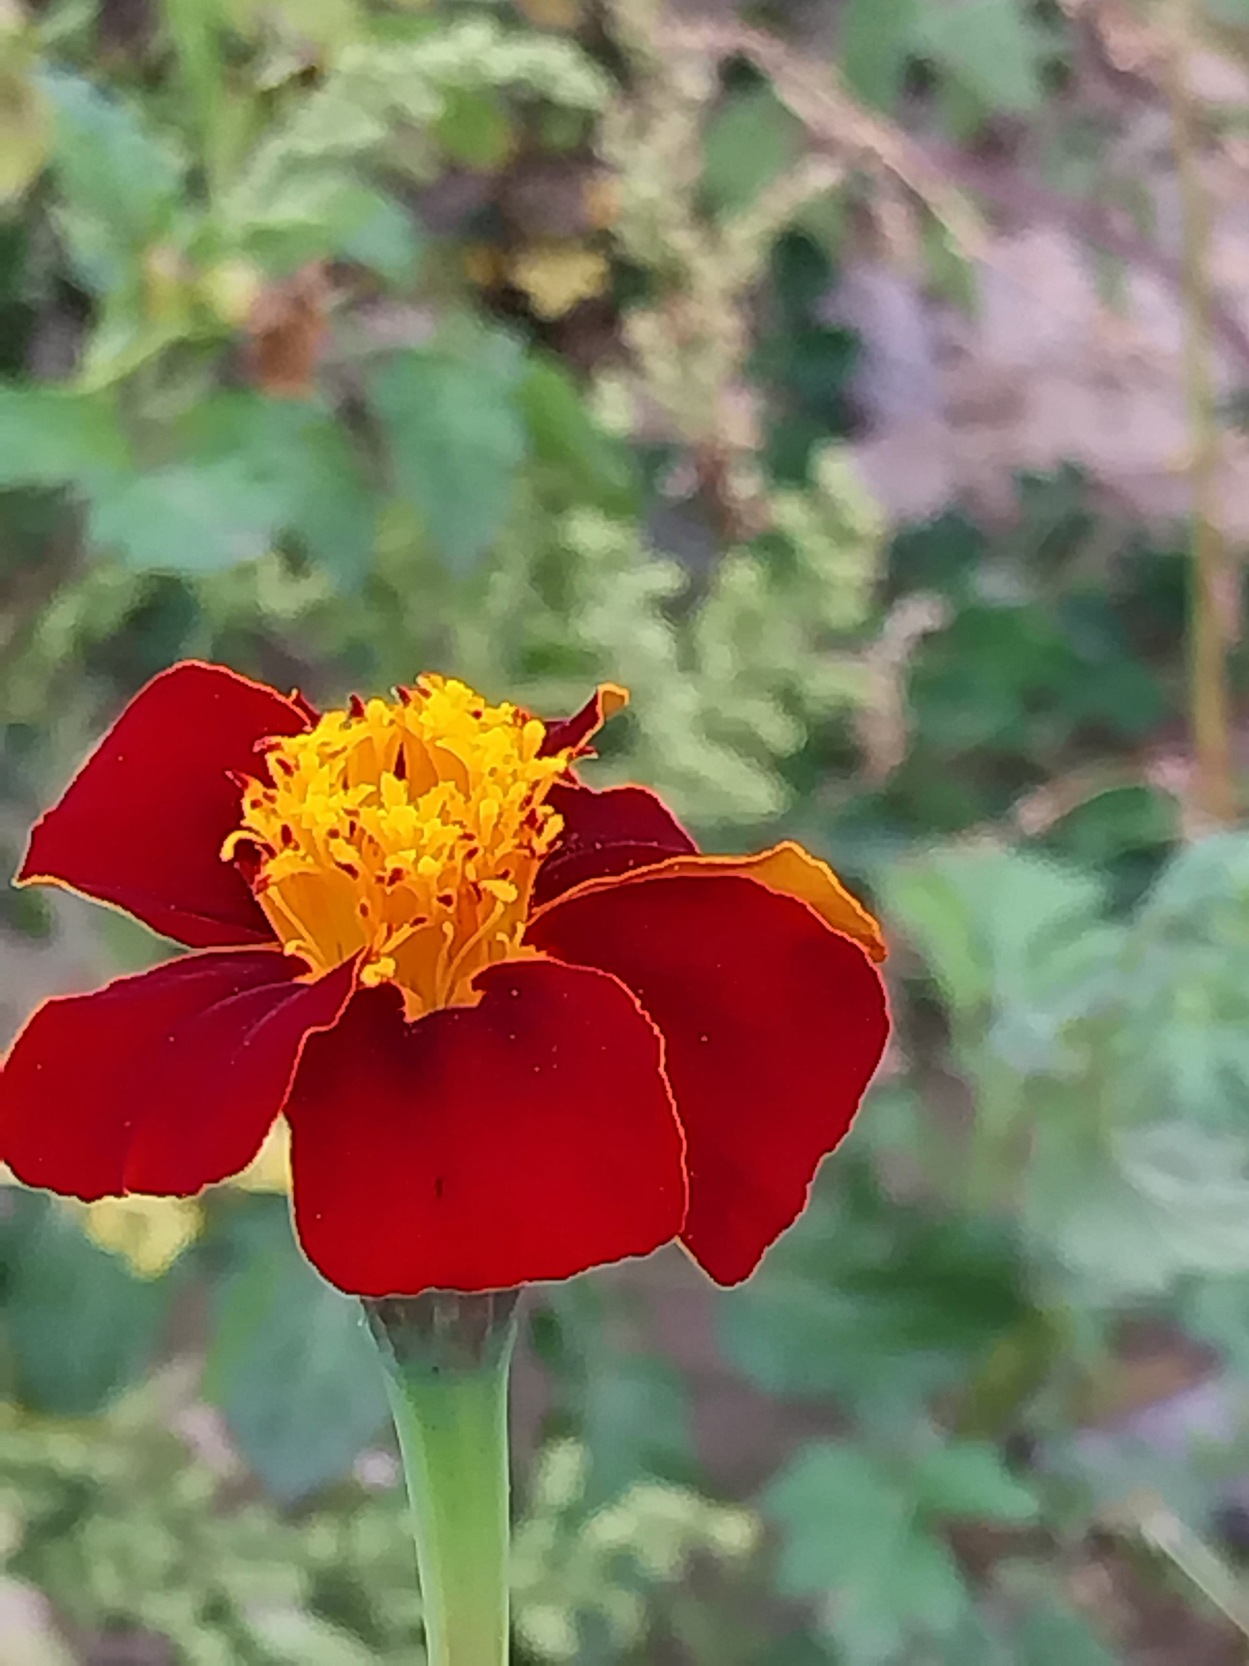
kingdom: Plantae
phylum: Tracheophyta
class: Magnoliopsida
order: Asterales
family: Asteraceae
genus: Tagetes
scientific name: Tagetes erecta
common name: Udspærret fløjlsblomst
